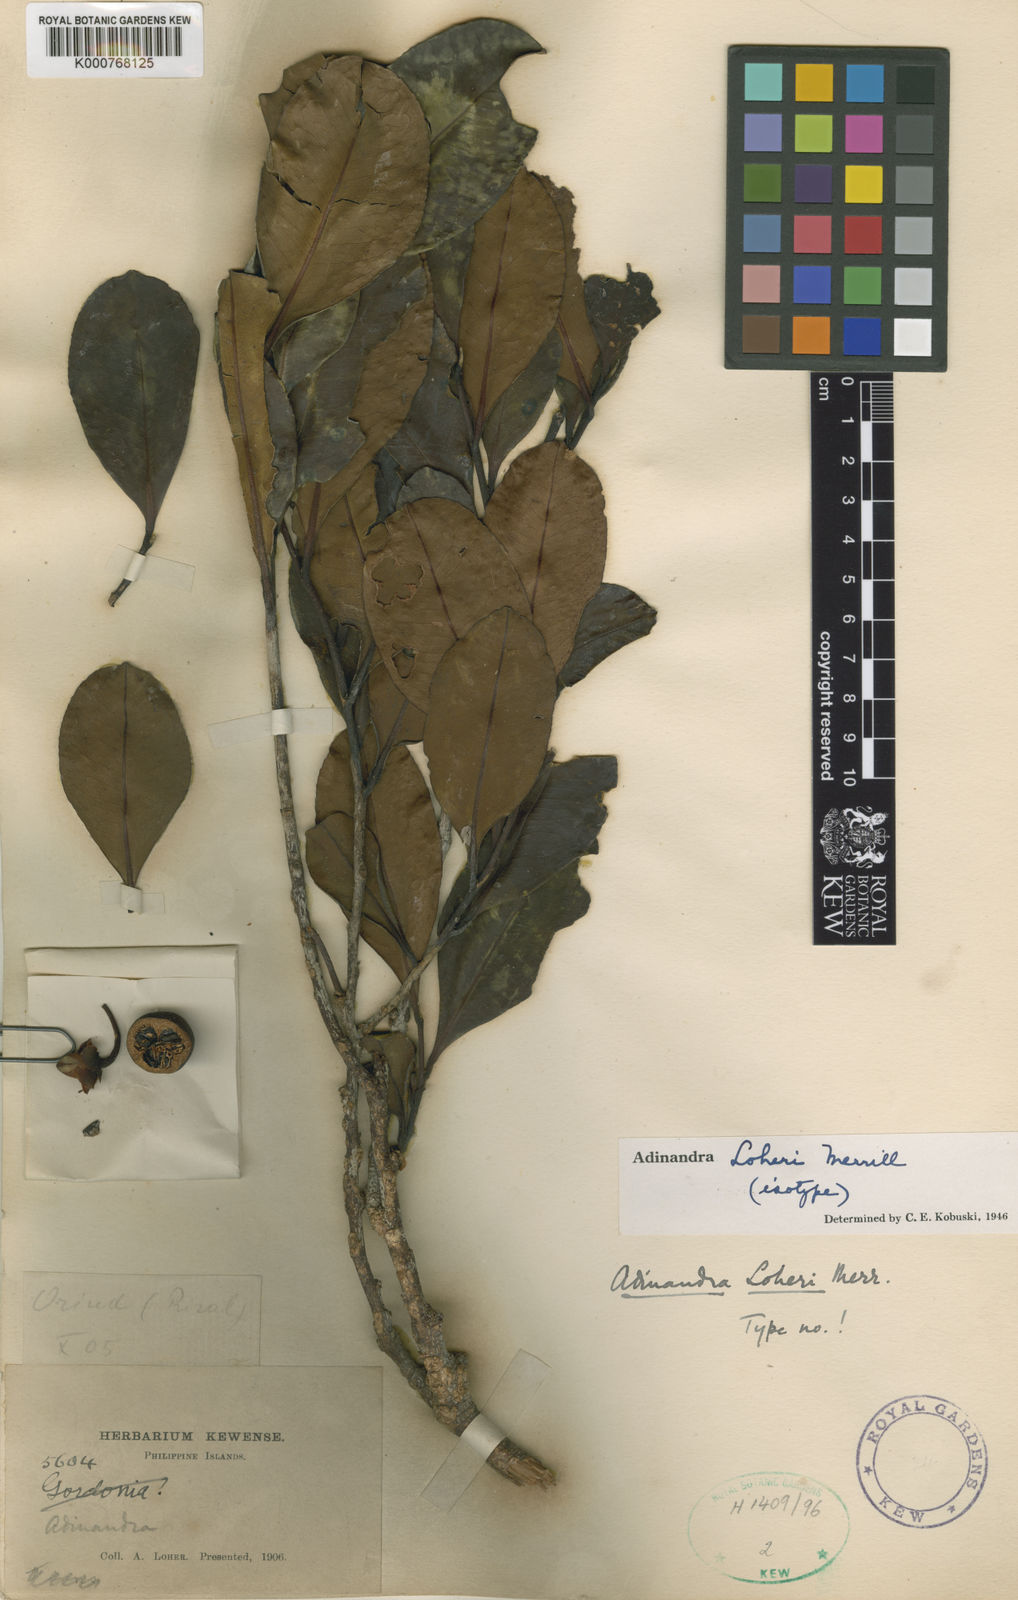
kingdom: Plantae
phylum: Tracheophyta
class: Magnoliopsida
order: Ericales
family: Pentaphylacaceae
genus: Adinandra
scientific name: Adinandra loheri
